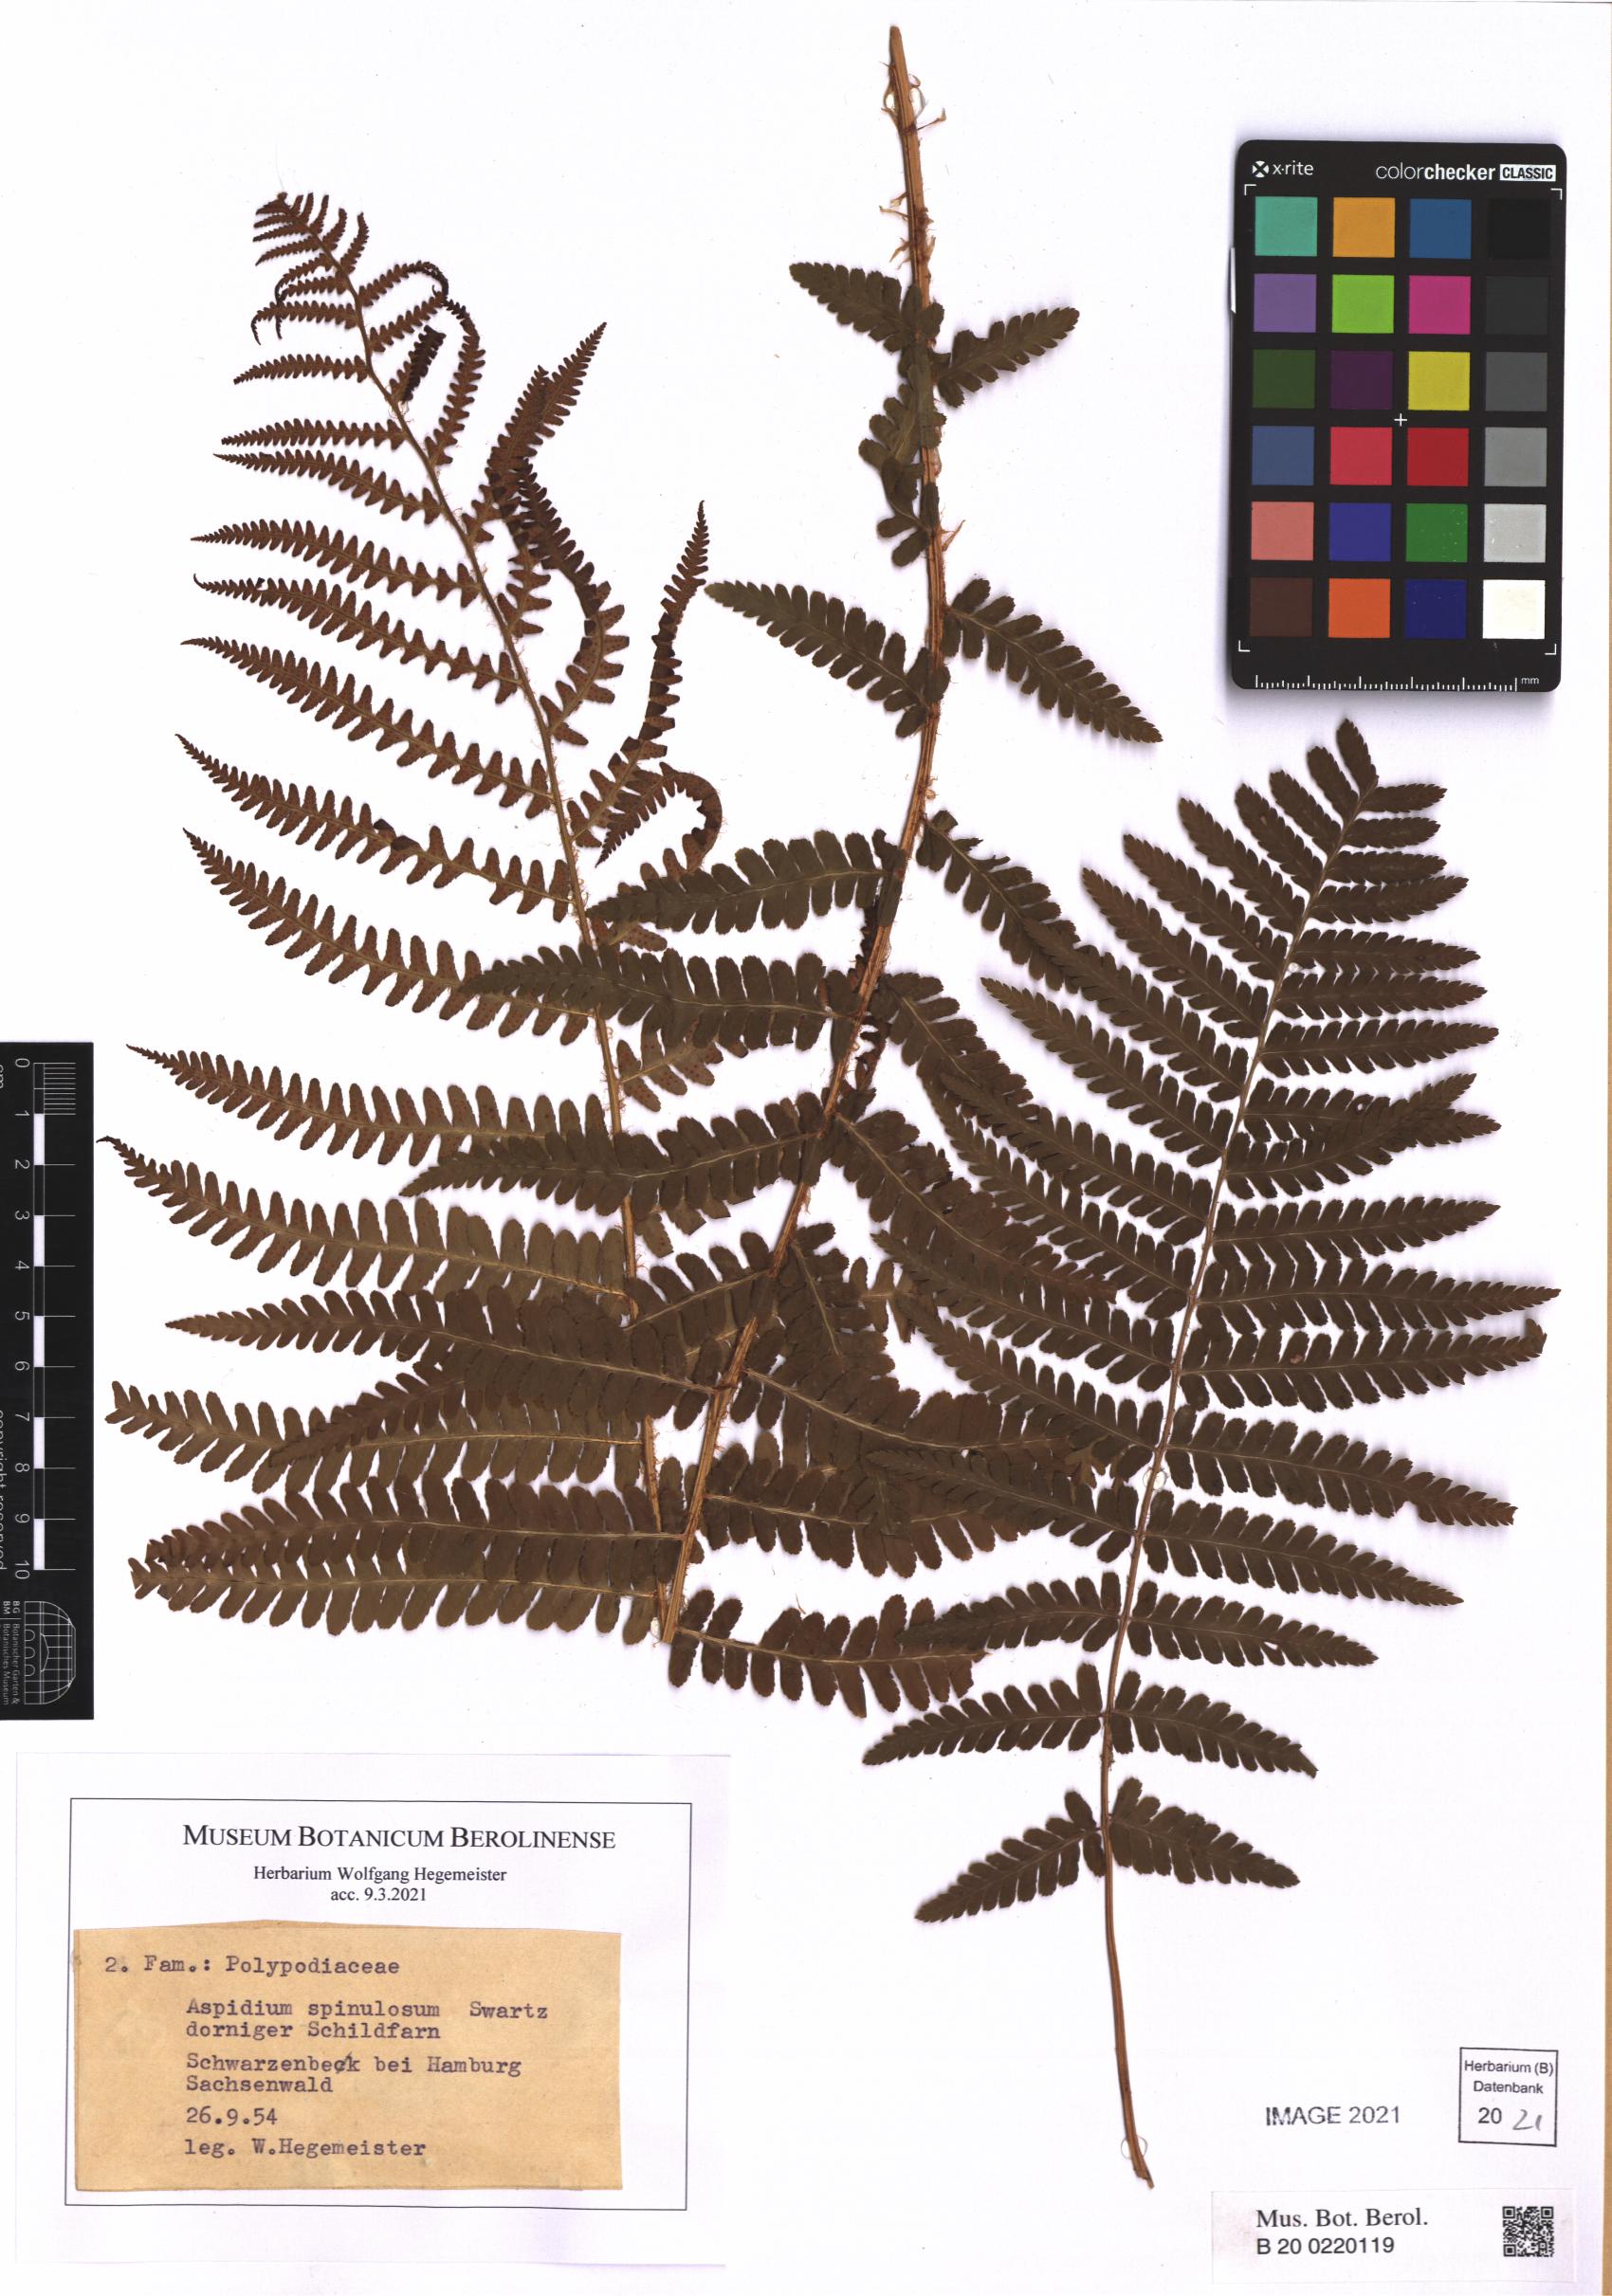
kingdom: Plantae
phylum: Tracheophyta
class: Polypodiopsida
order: Polypodiales
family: Dryopteridaceae
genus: Dryopteris
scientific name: Dryopteris carthusiana
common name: Narrow buckler-fern
